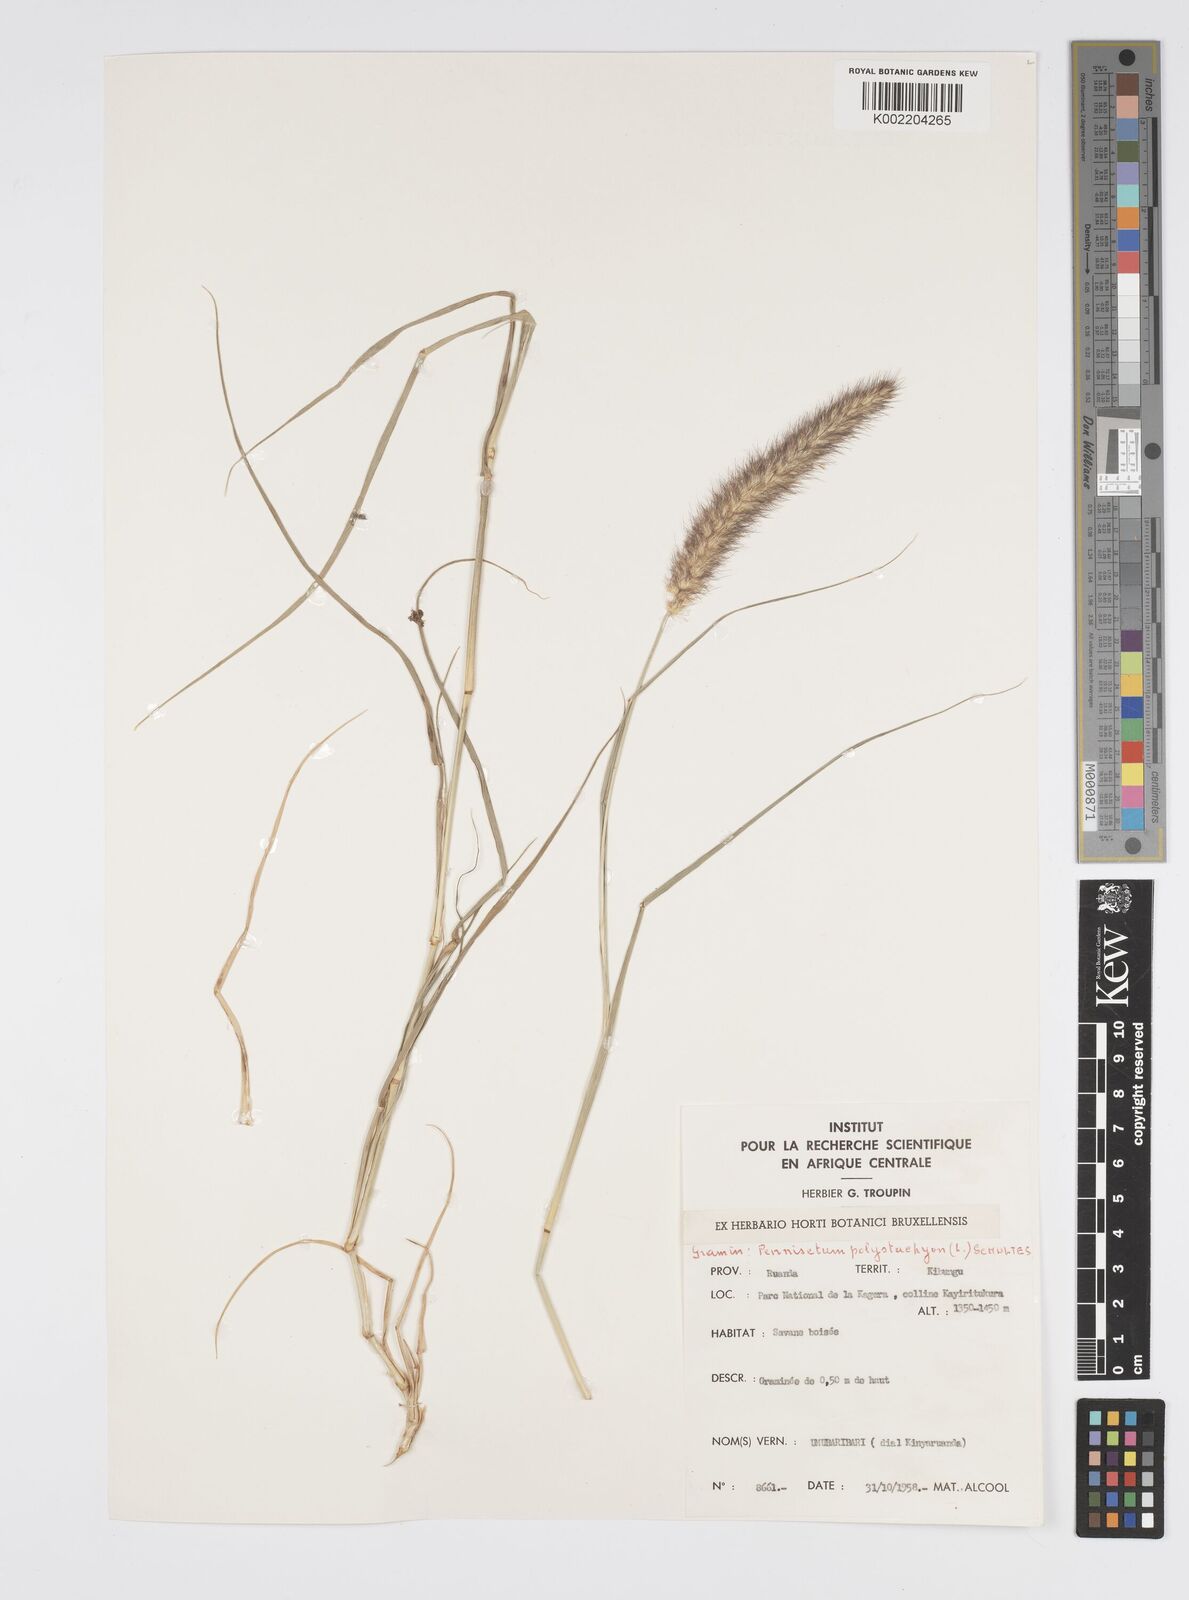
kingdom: Plantae
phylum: Tracheophyta
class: Liliopsida
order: Poales
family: Poaceae
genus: Setaria
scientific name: Setaria parviflora
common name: Knotroot bristle-grass
